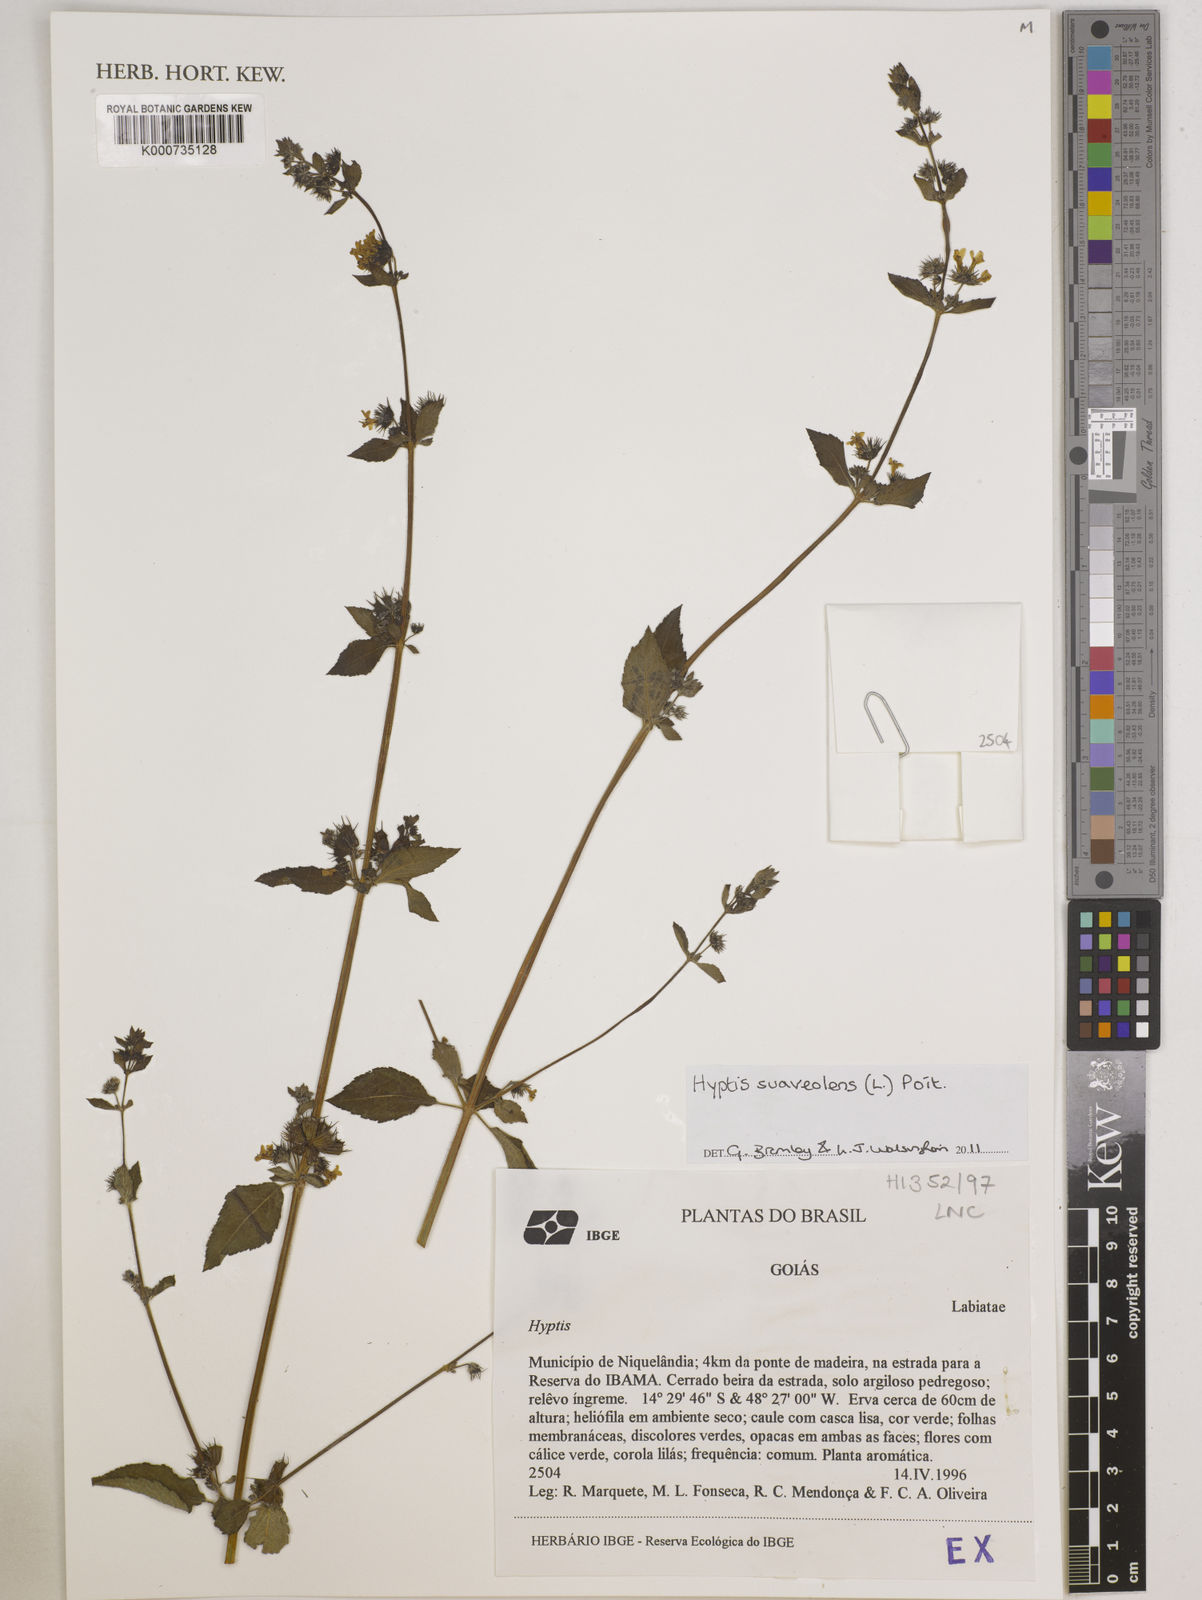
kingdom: Plantae
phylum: Tracheophyta
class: Magnoliopsida
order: Lamiales
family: Lamiaceae
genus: Mesosphaerum
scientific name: Mesosphaerum suaveolens
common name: Pignut
